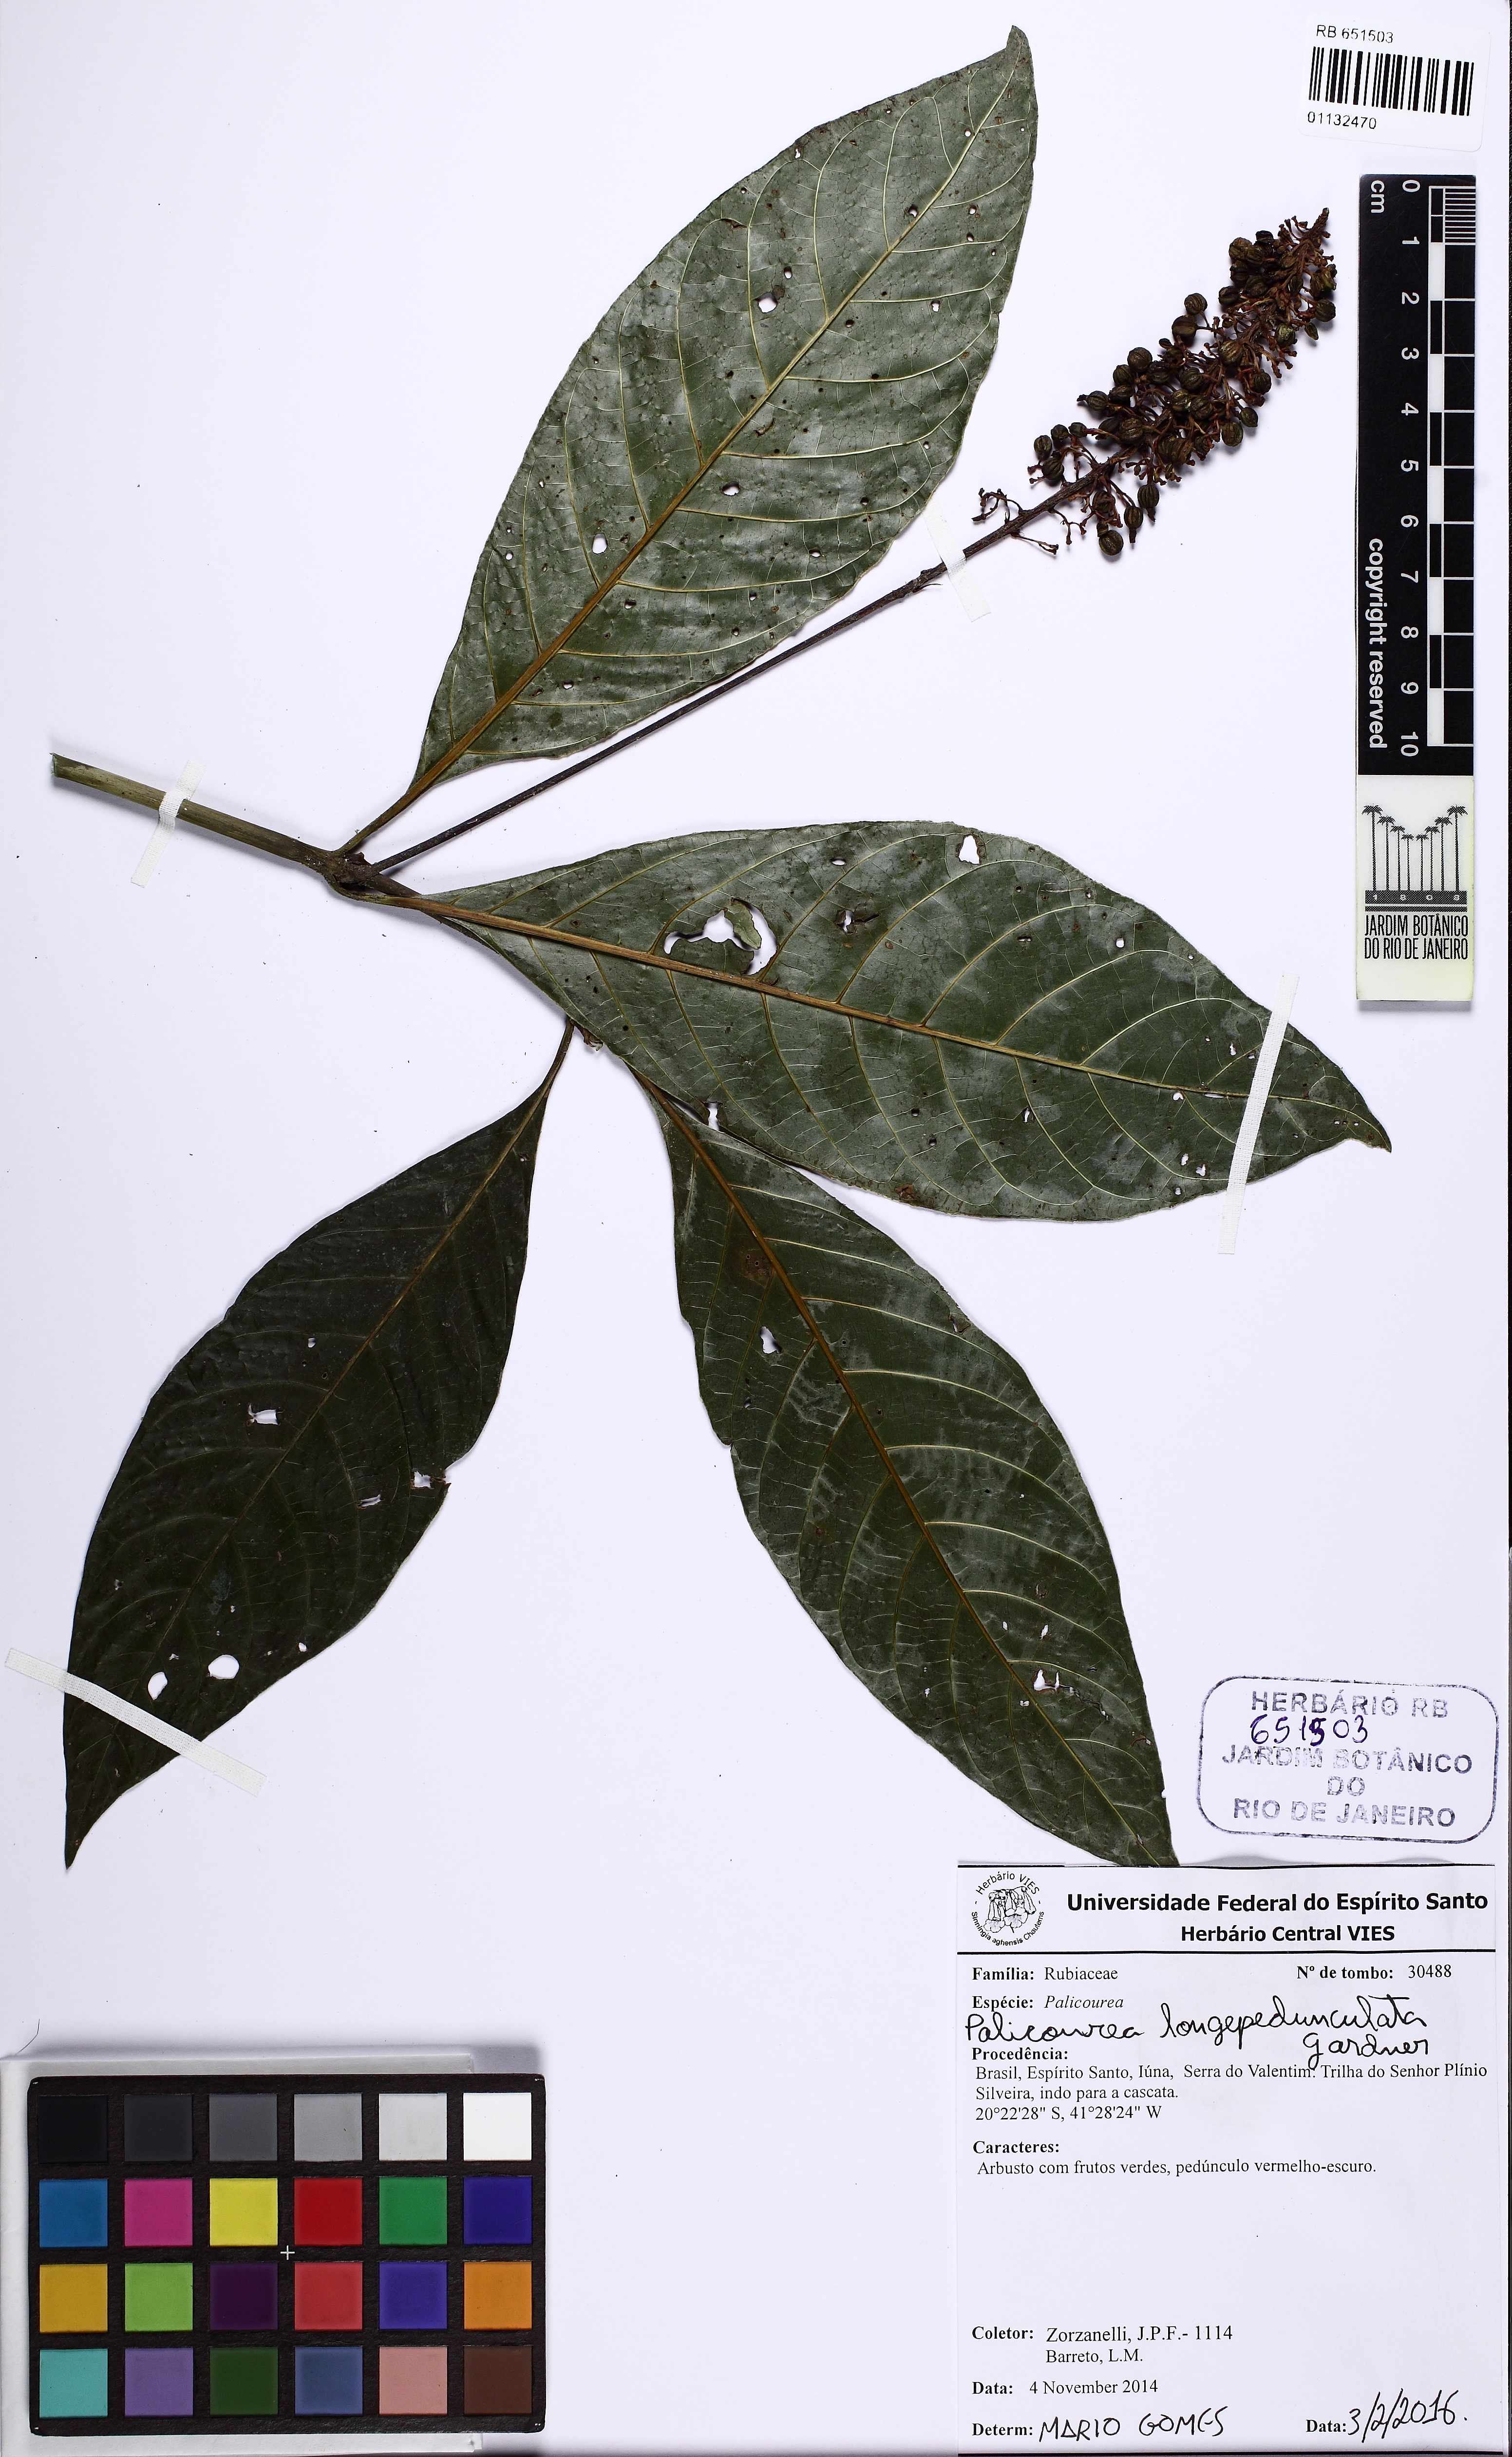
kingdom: Plantae
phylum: Tracheophyta
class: Magnoliopsida
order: Gentianales
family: Rubiaceae
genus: Palicourea
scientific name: Palicourea longipedunculata
